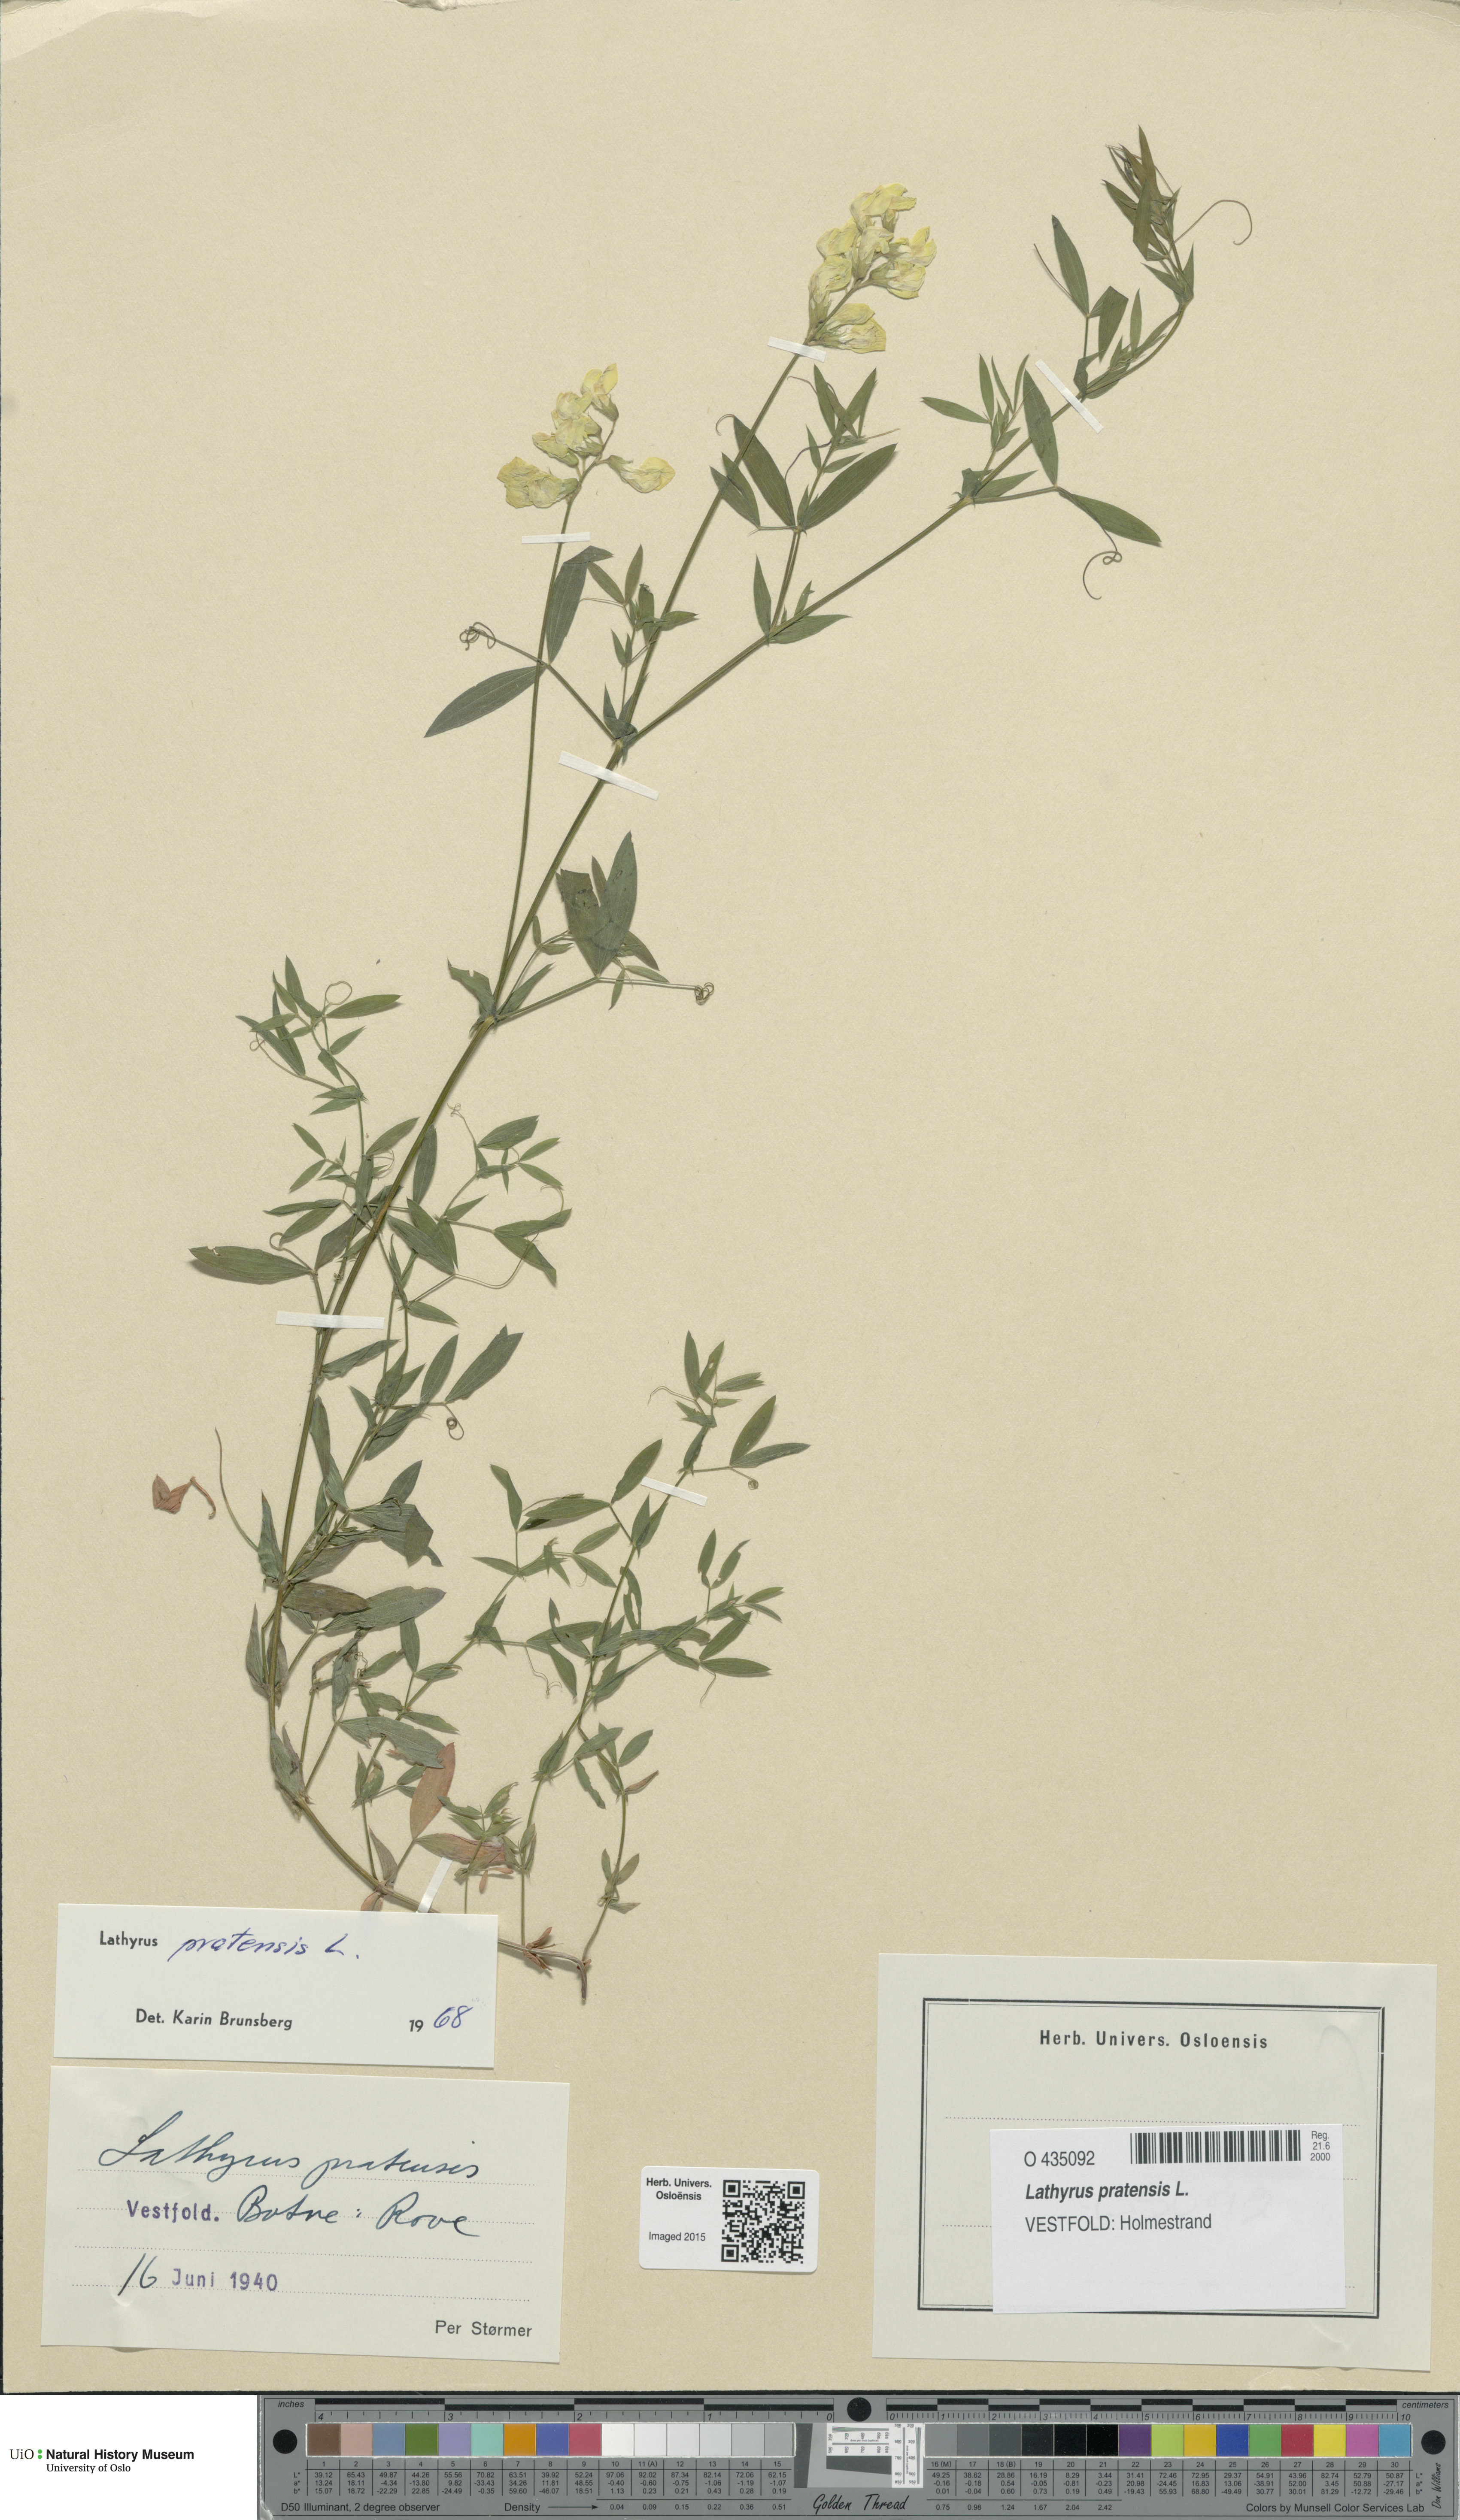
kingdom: Plantae
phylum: Tracheophyta
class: Magnoliopsida
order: Fabales
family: Fabaceae
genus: Lathyrus
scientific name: Lathyrus pratensis
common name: Meadow vetchling
